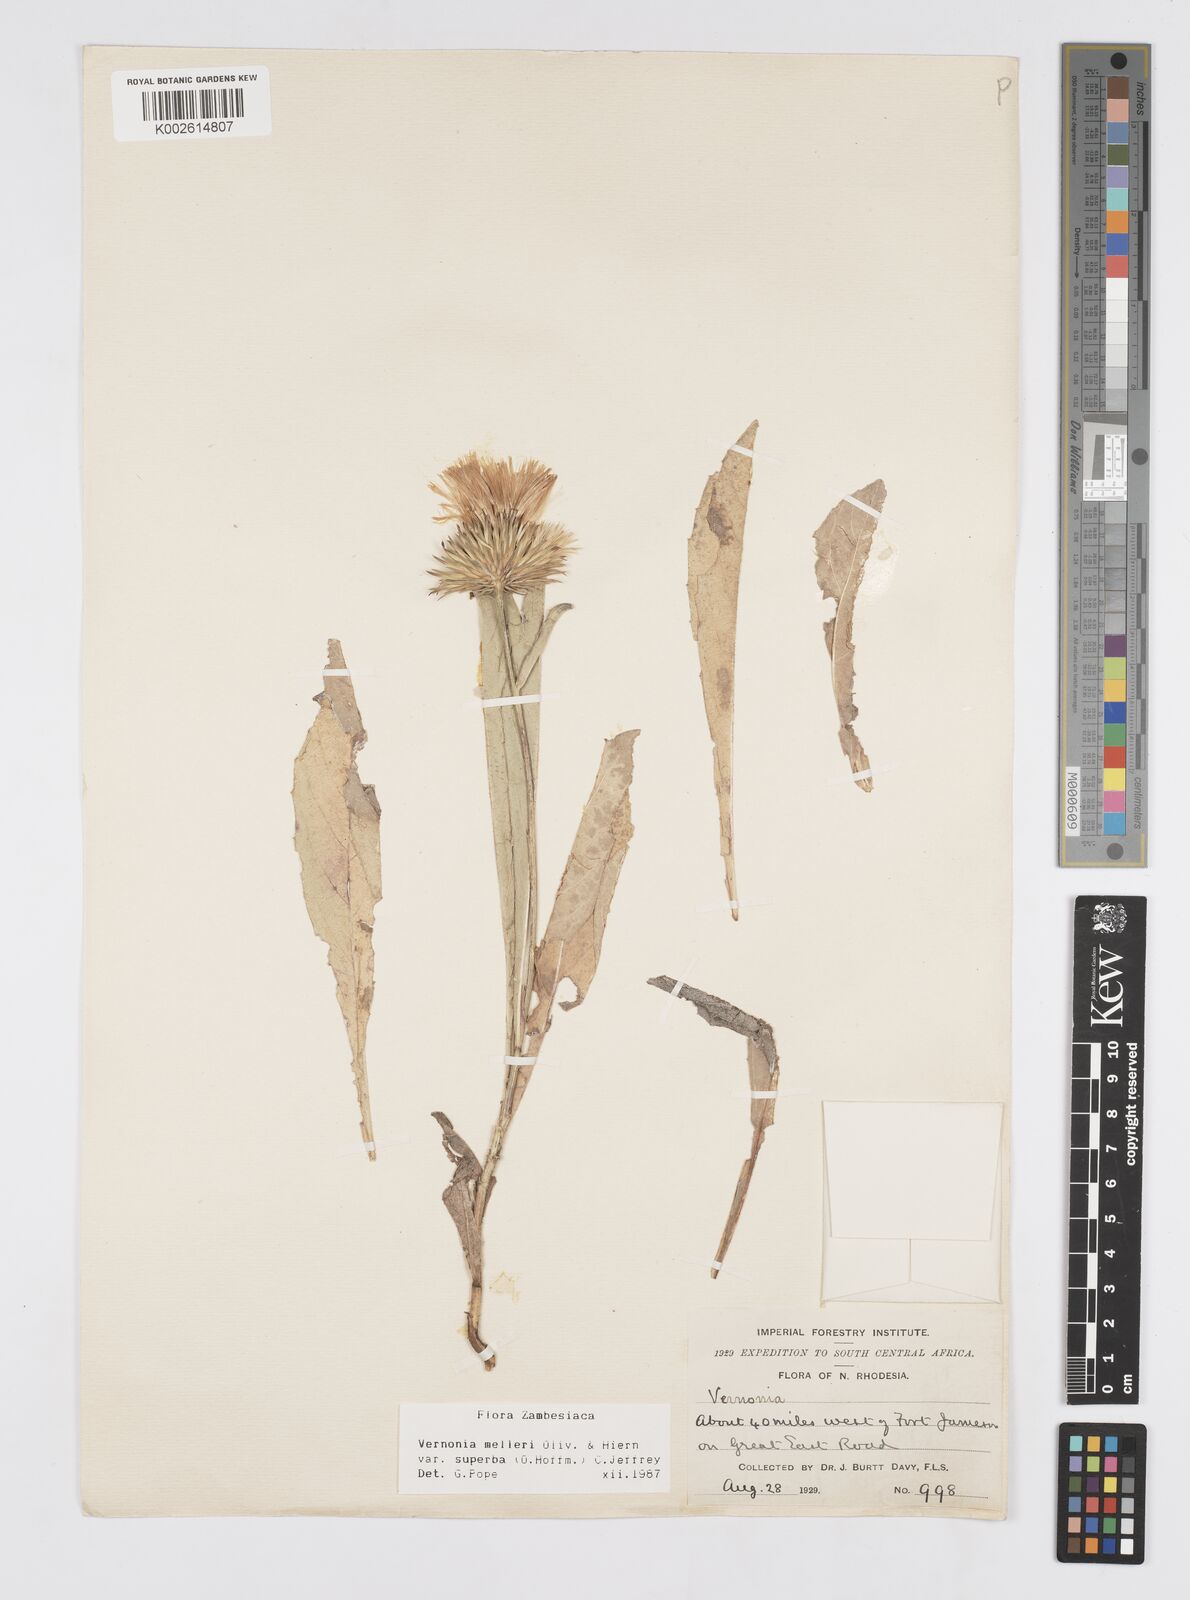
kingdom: Plantae
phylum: Tracheophyta
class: Magnoliopsida
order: Asterales
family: Asteraceae
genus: Linzia
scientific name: Linzia melleri
